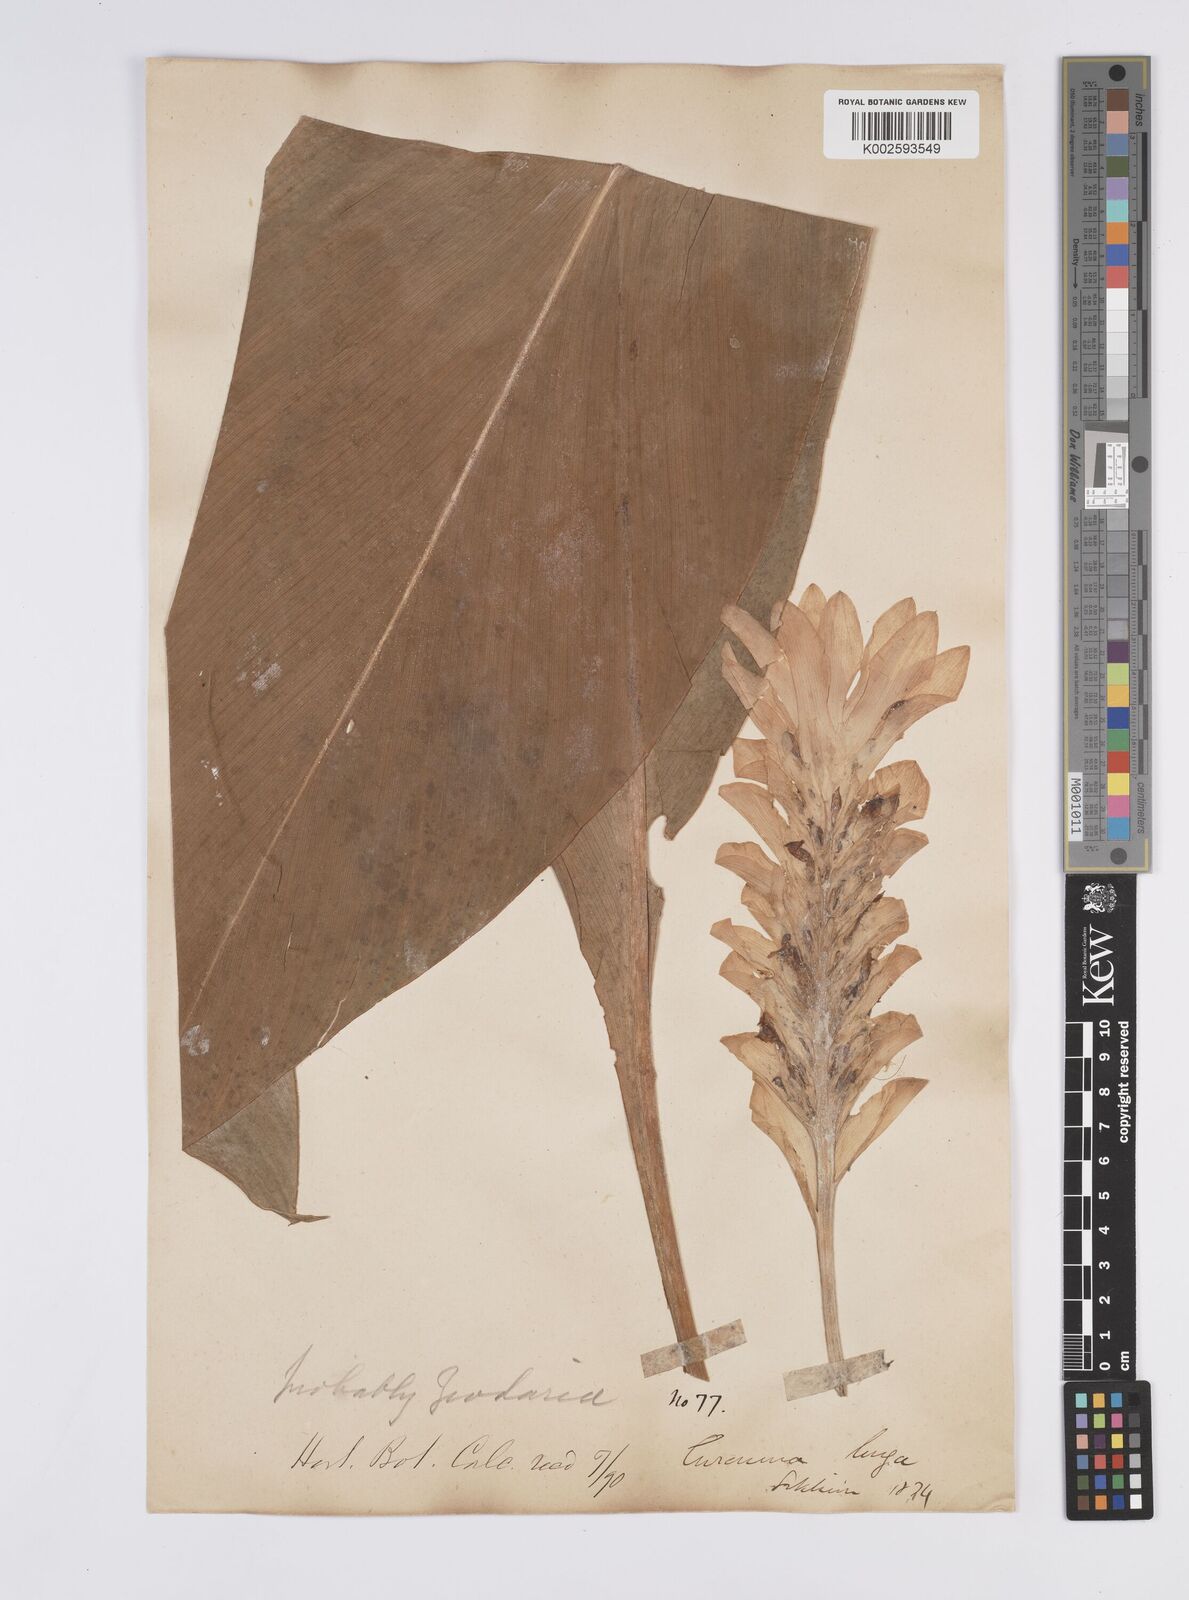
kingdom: Plantae
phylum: Tracheophyta
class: Liliopsida
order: Zingiberales
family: Zingiberaceae
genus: Curcuma
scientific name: Curcuma aromatica
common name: Wild turmeric
